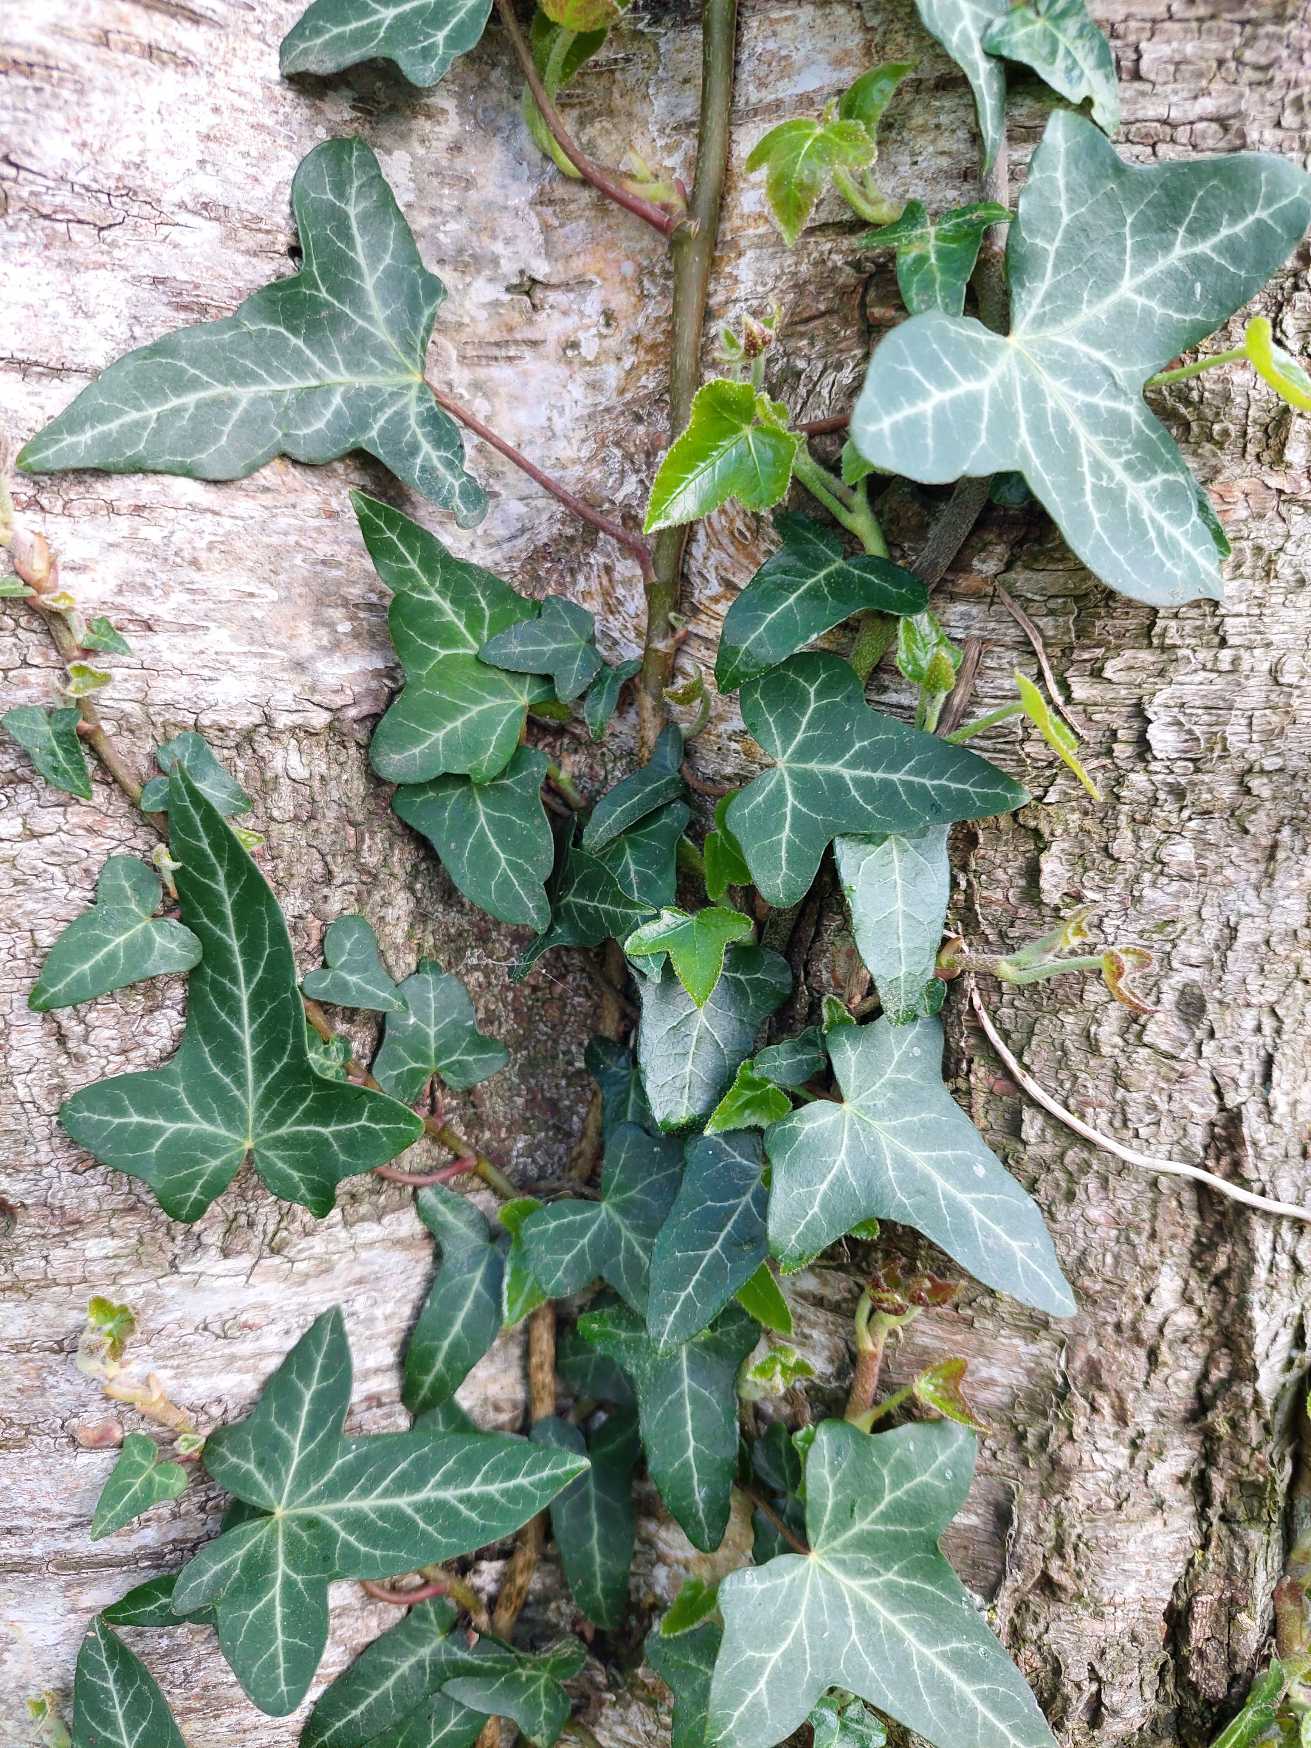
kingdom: Plantae
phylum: Tracheophyta
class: Magnoliopsida
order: Apiales
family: Araliaceae
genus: Hedera
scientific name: Hedera helix
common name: Vedbend
